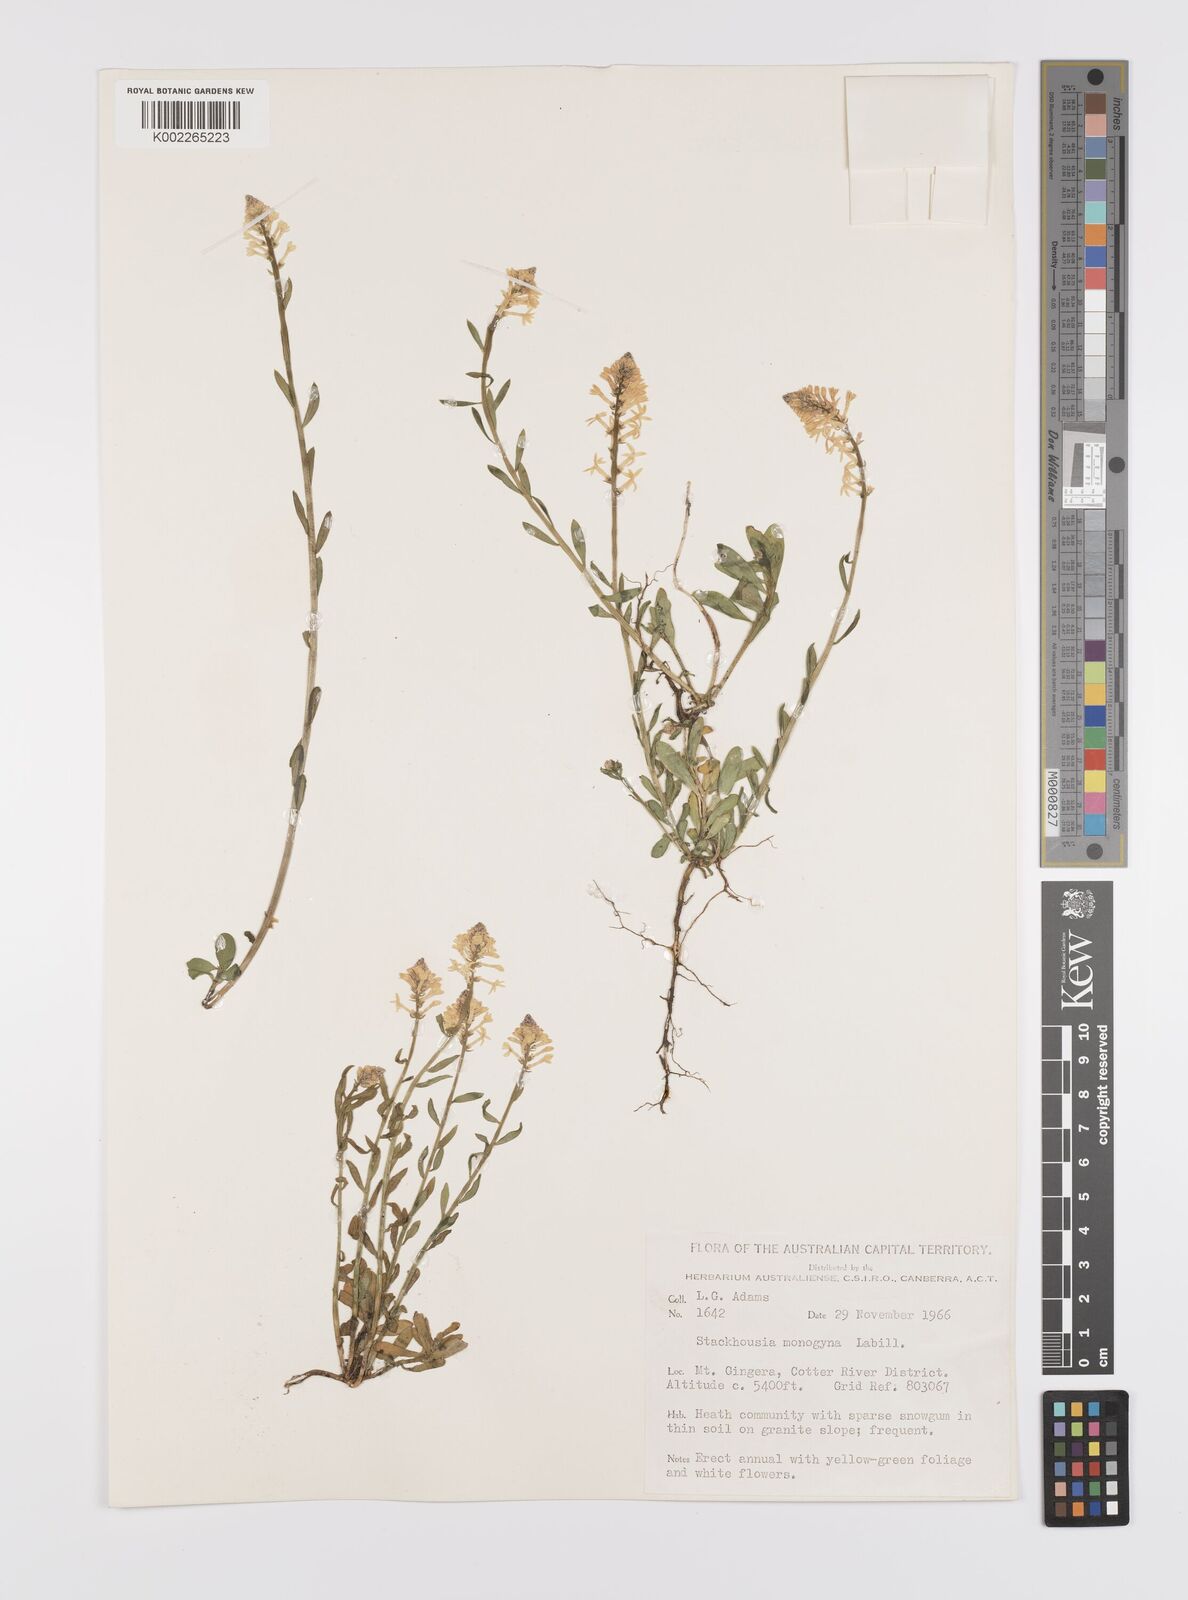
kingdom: Plantae
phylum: Tracheophyta
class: Magnoliopsida
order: Celastrales
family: Celastraceae
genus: Stackhousia
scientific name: Stackhousia monogyna
